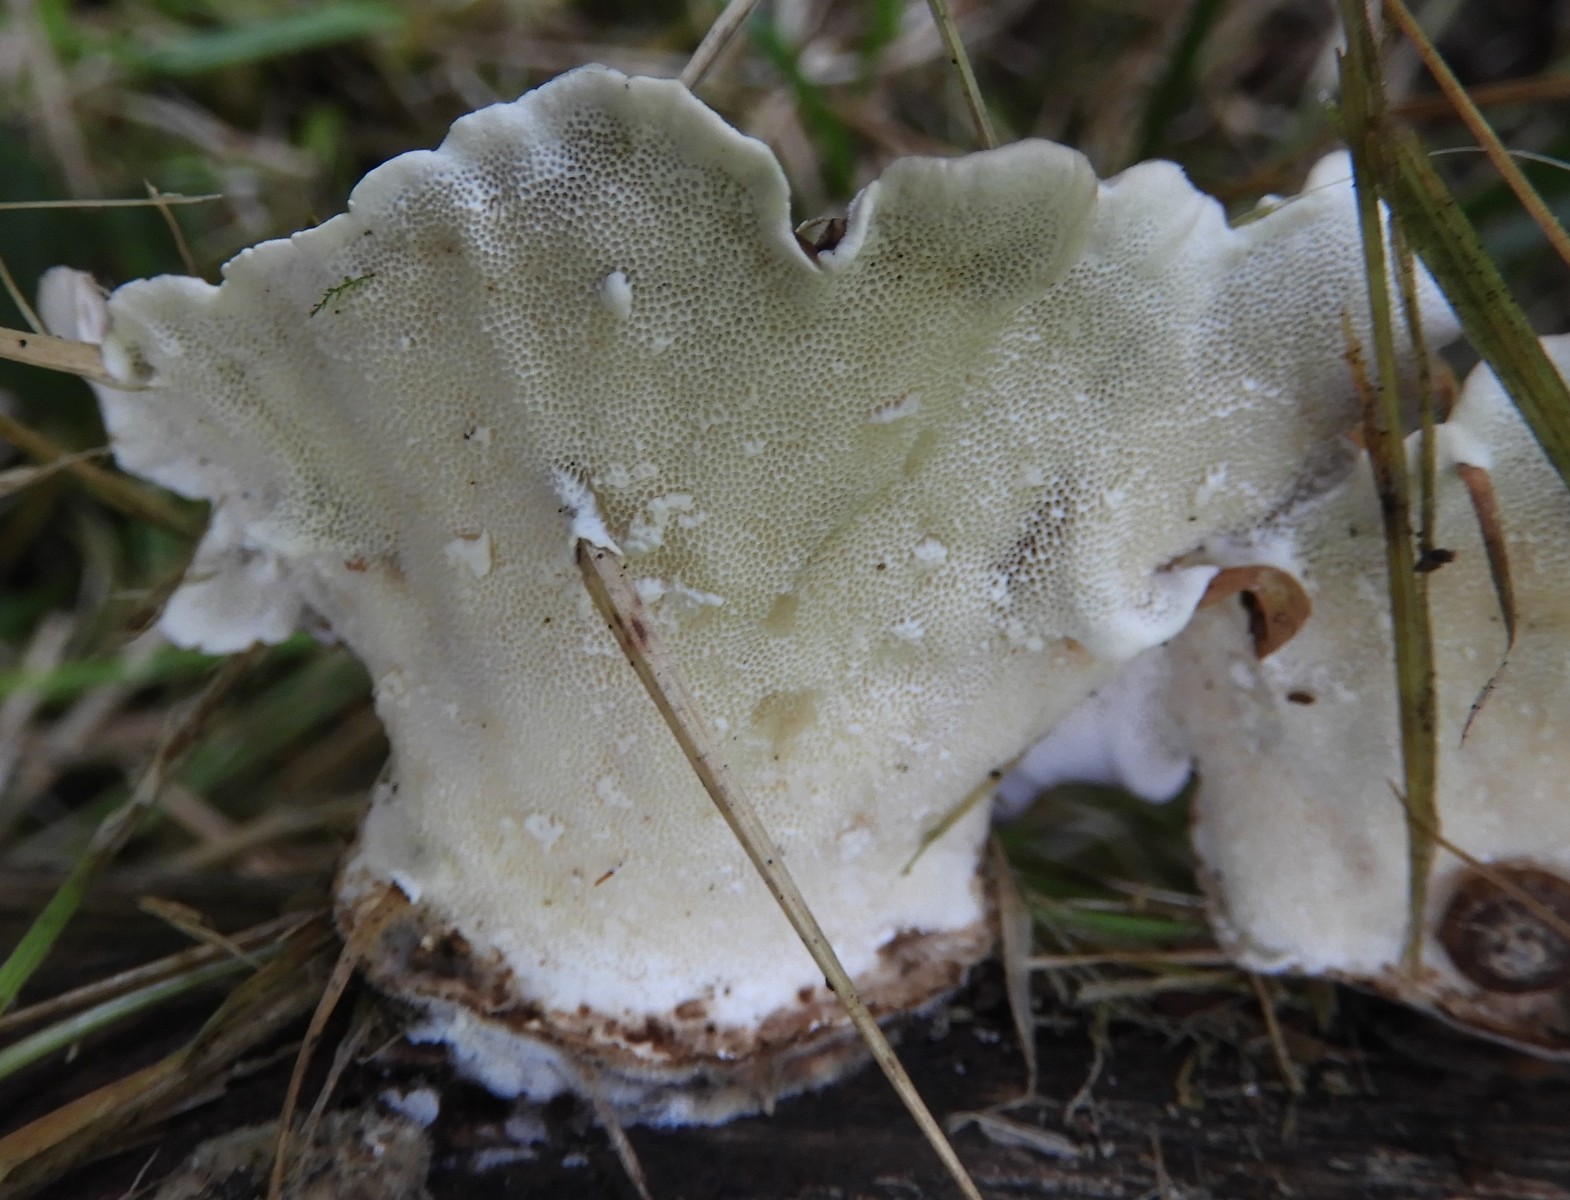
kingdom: Fungi
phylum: Basidiomycota
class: Agaricomycetes
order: Polyporales
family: Polyporaceae
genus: Trametes
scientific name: Trametes versicolor
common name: broget læderporesvamp
